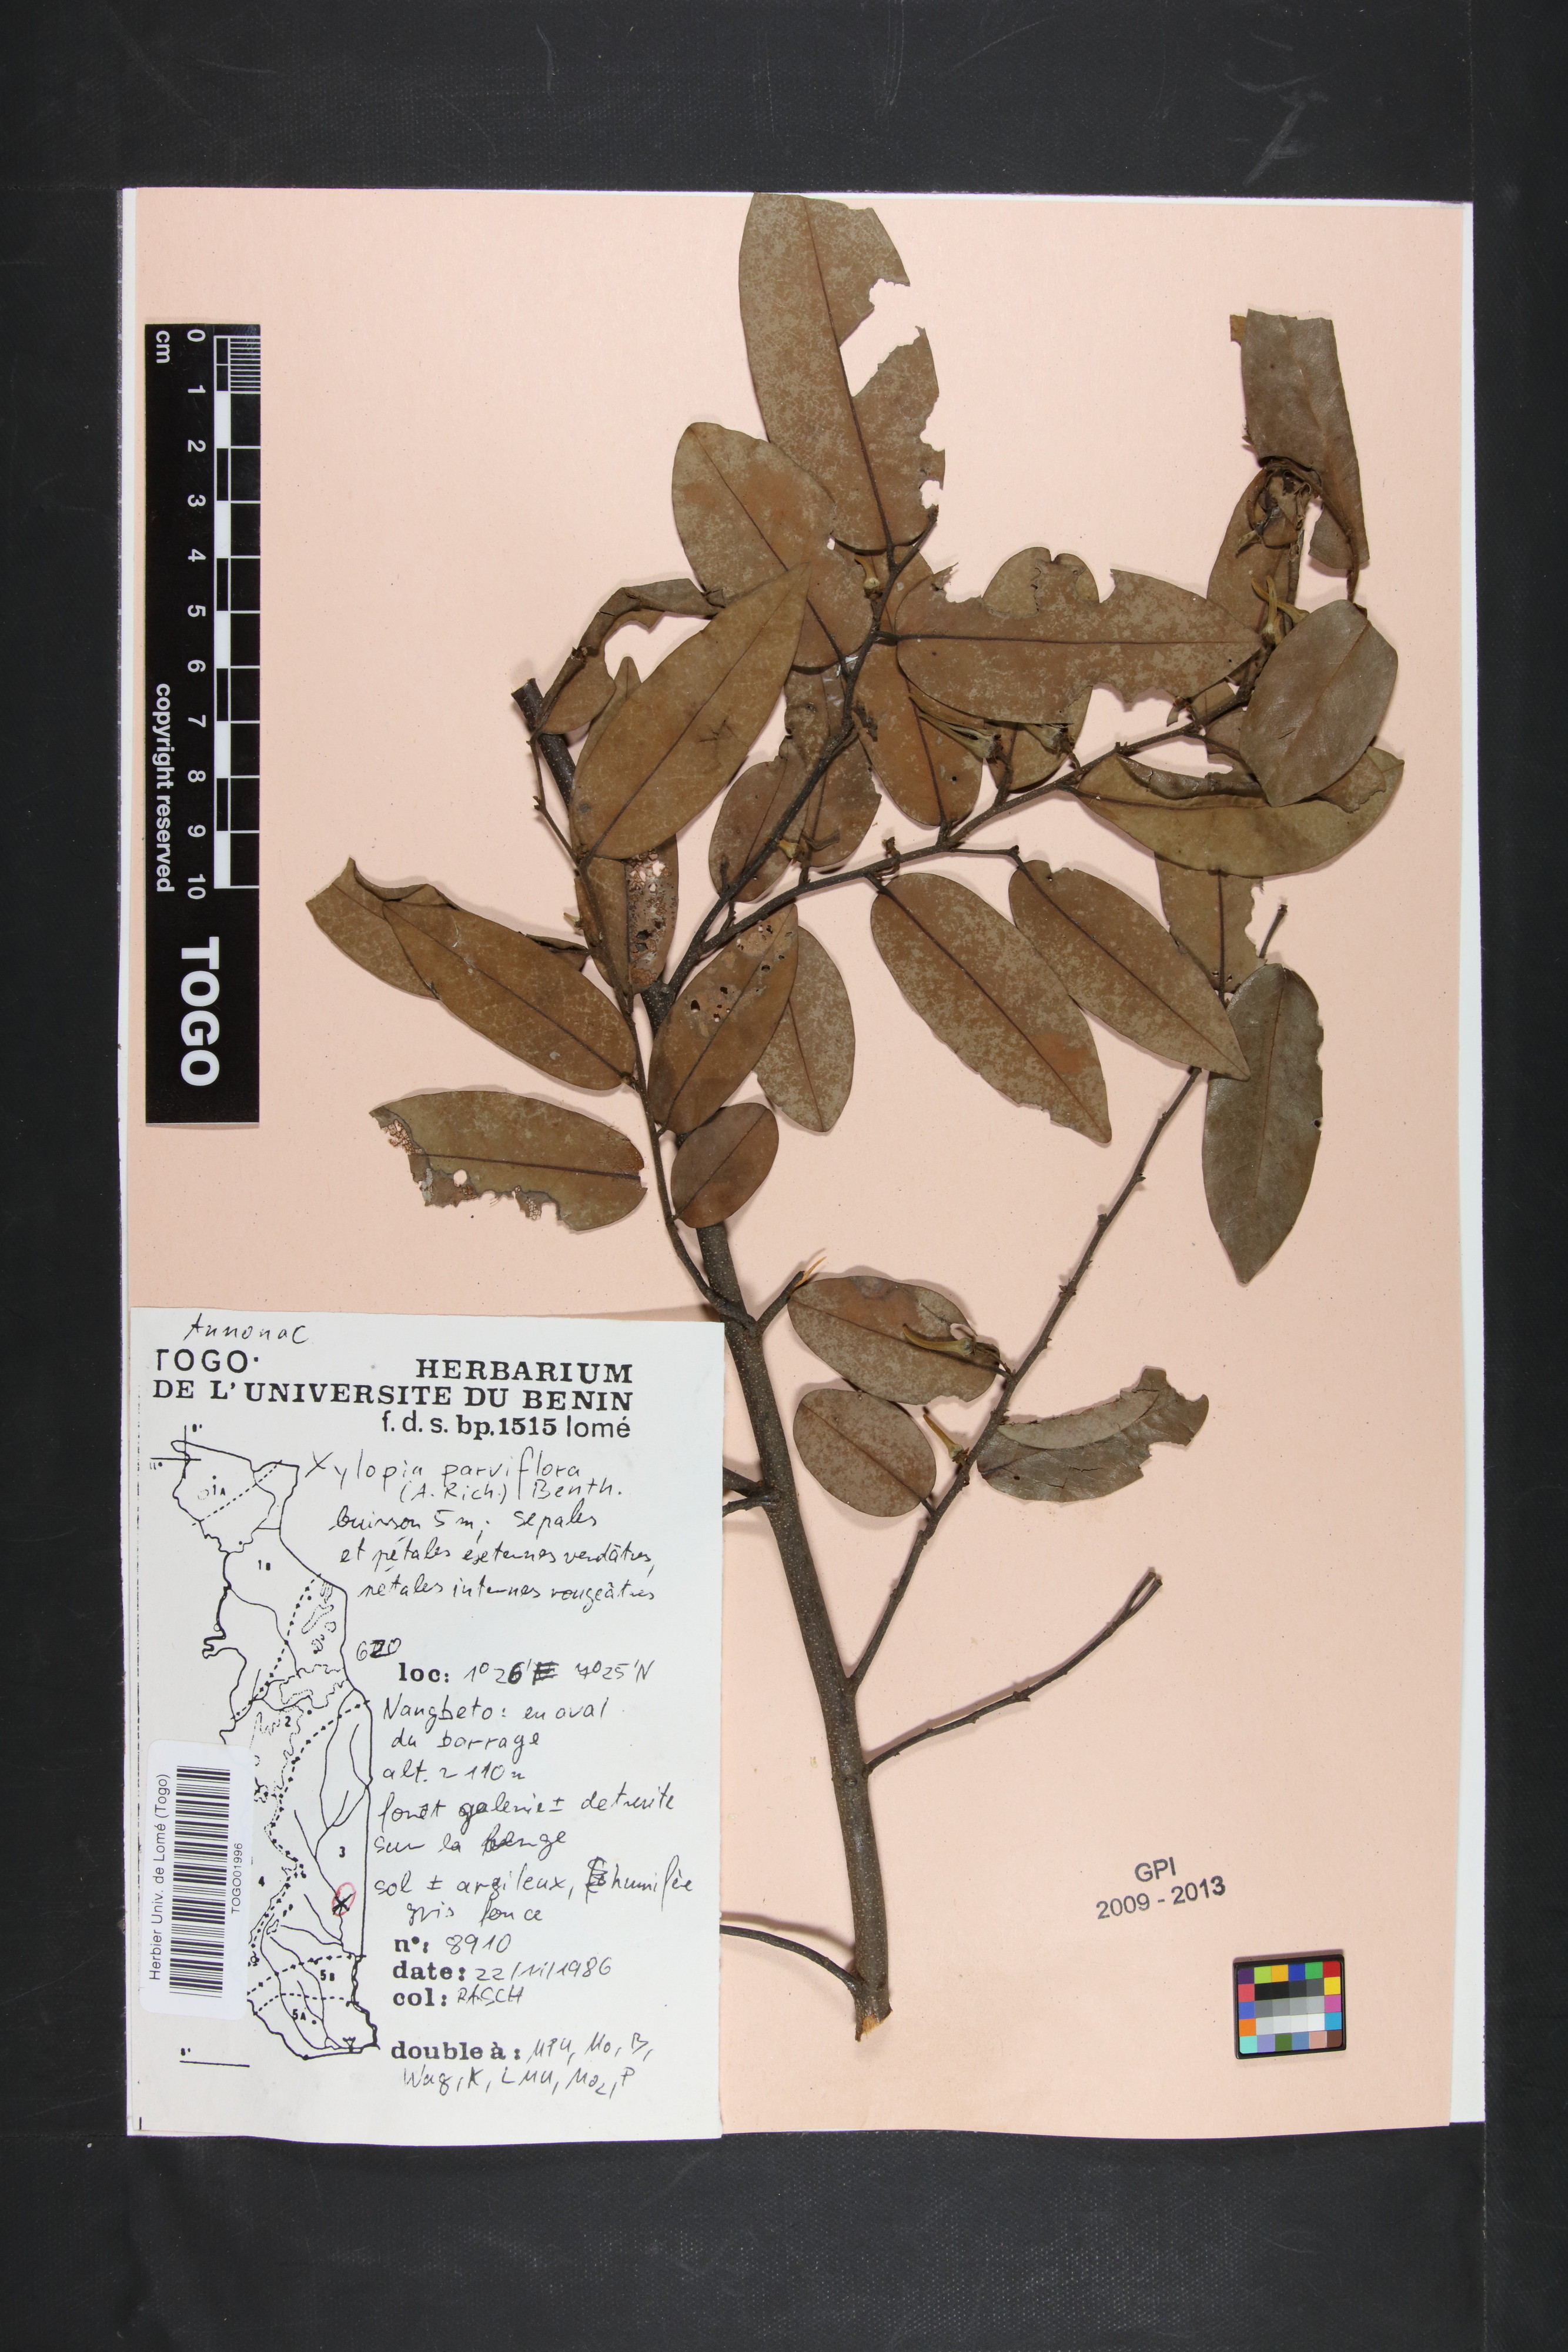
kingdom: Plantae
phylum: Tracheophyta
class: Magnoliopsida
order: Magnoliales
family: Annonaceae
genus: Xylopia
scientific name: Xylopia parviflora
